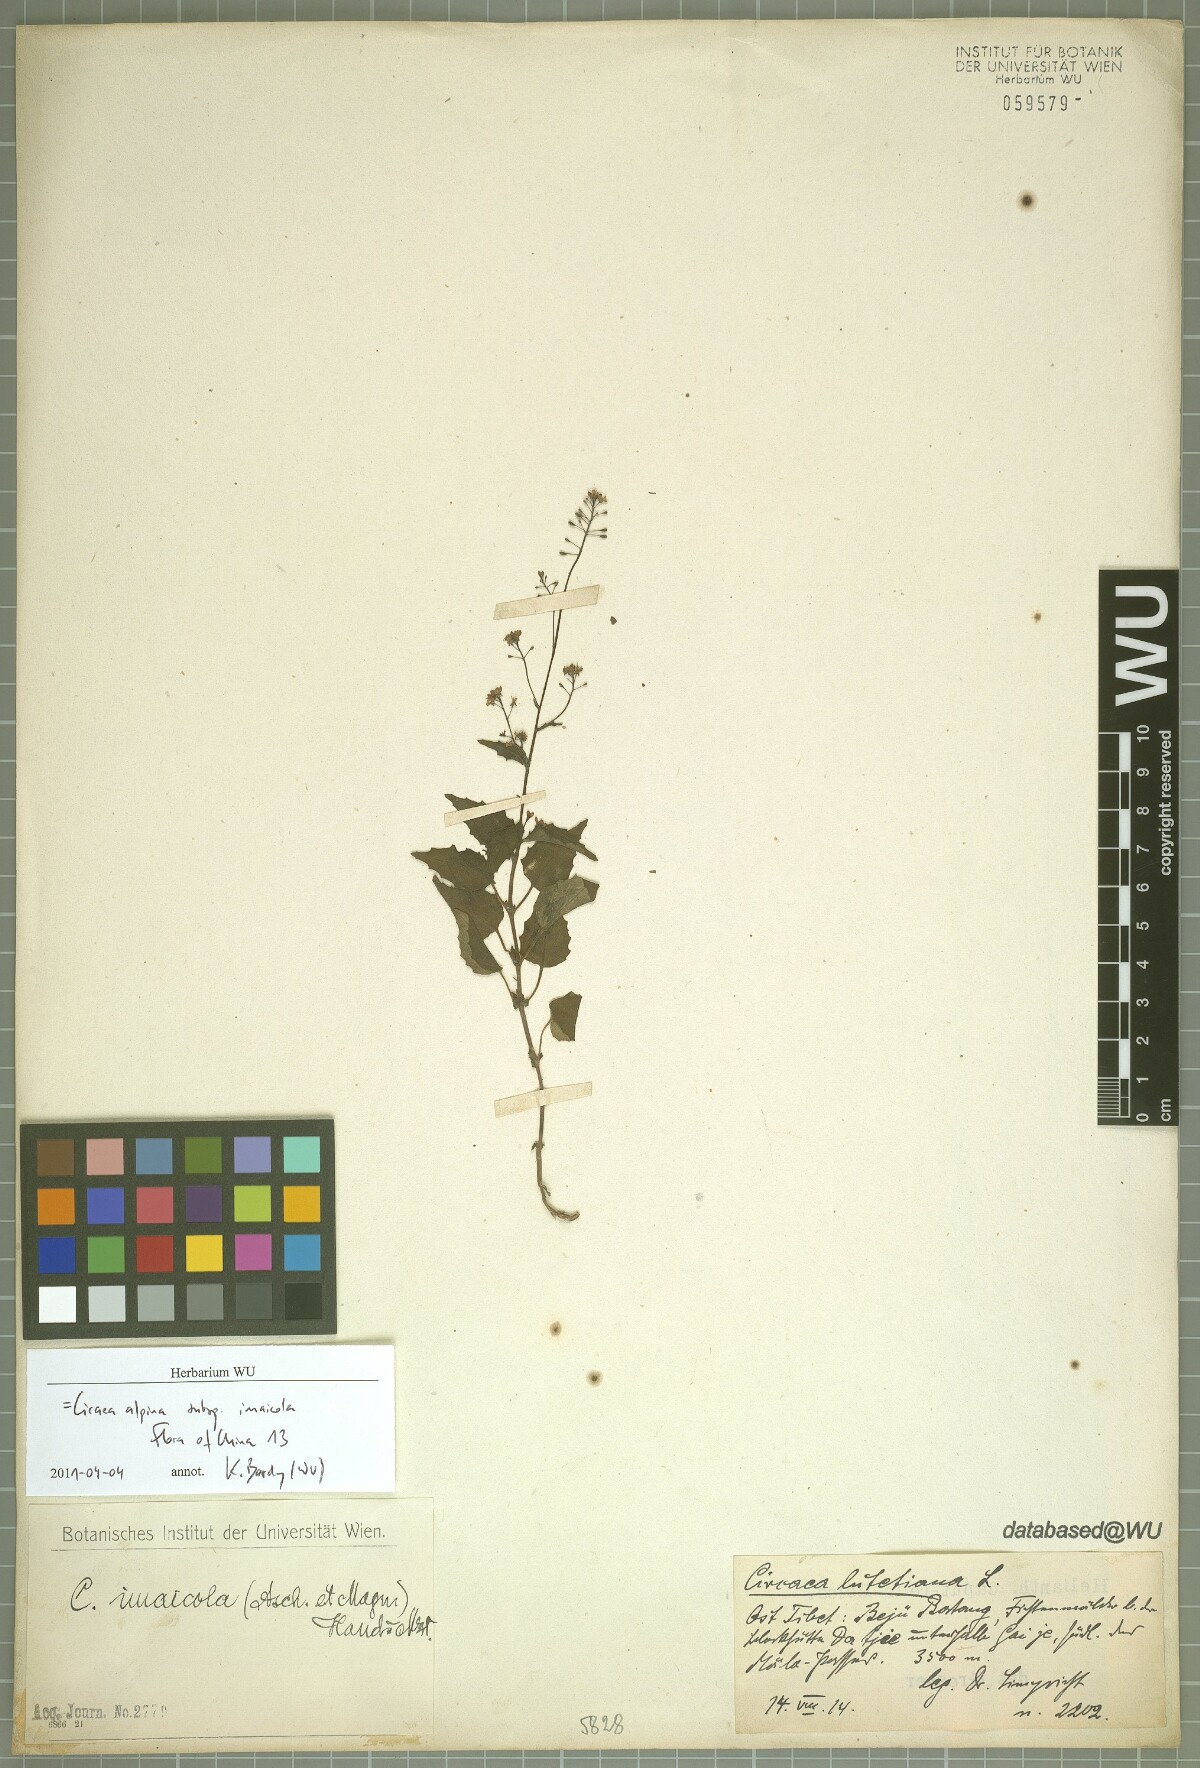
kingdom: Plantae
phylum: Tracheophyta
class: Magnoliopsida
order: Myrtales
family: Onagraceae
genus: Circaea
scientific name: Circaea alpina
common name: Alpine enchanter's-nightshade
